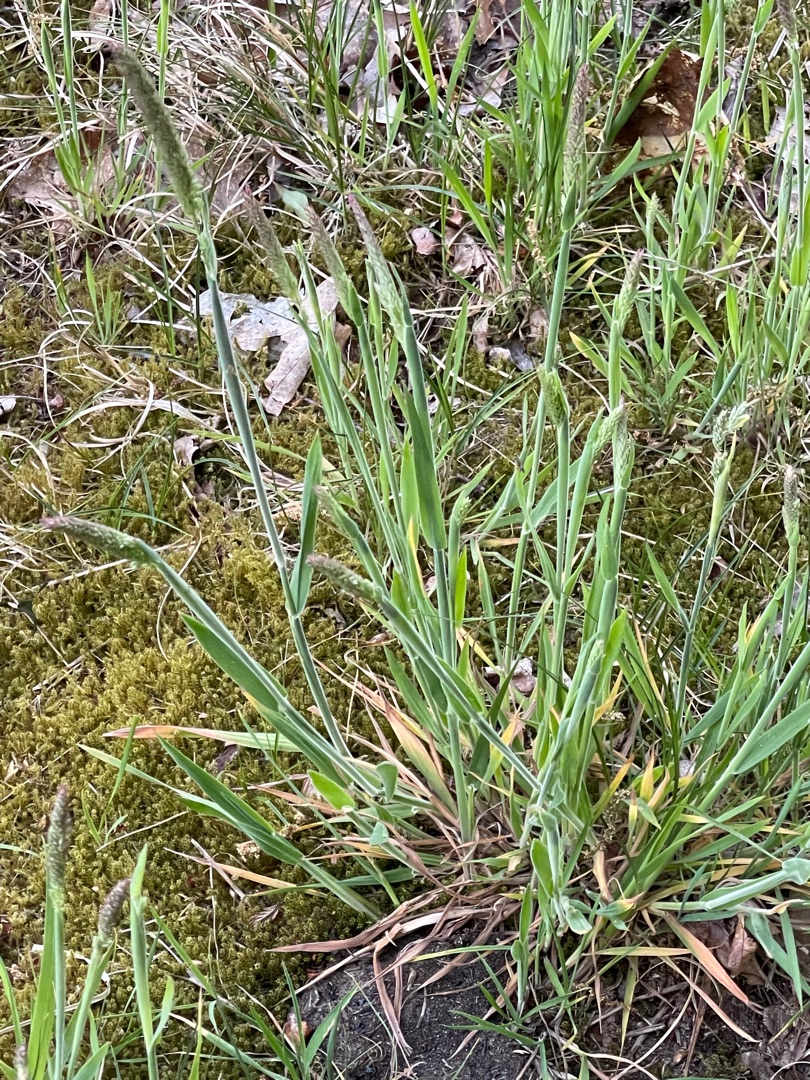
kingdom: Plantae
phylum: Tracheophyta
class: Liliopsida
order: Poales
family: Poaceae
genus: Holcus
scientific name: Holcus lanatus
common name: Fløjlsgræs
